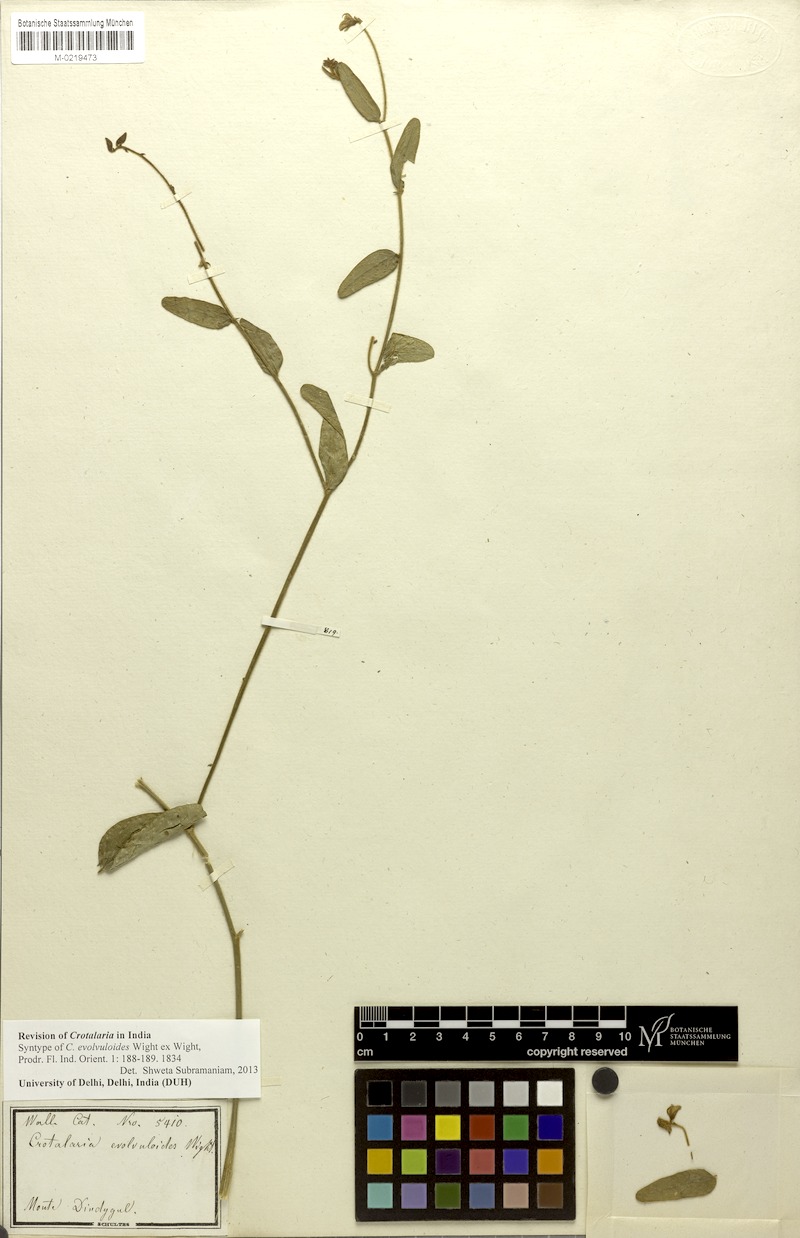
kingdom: Plantae
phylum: Tracheophyta
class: Magnoliopsida
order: Fabales
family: Fabaceae
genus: Crotalaria
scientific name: Crotalaria evolvuloides
